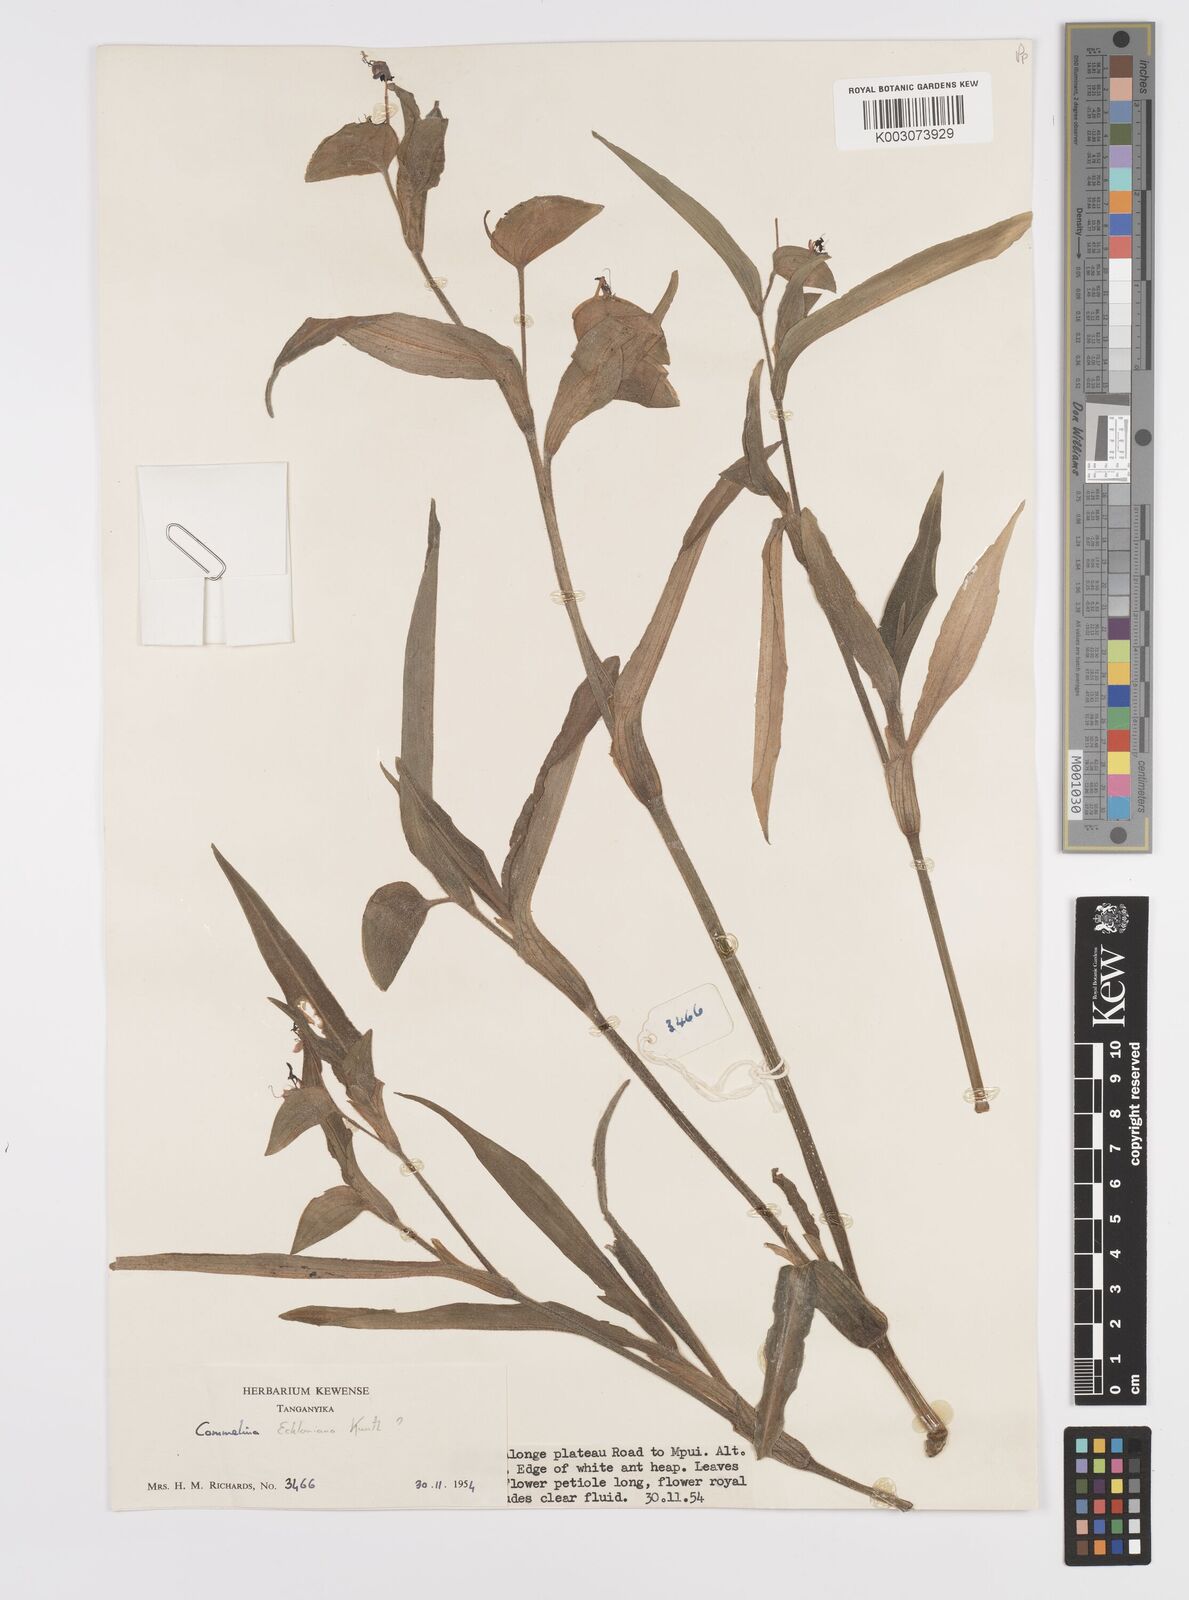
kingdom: Plantae
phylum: Tracheophyta
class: Liliopsida
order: Commelinales
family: Commelinaceae
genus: Commelina
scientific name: Commelina eckloniana
